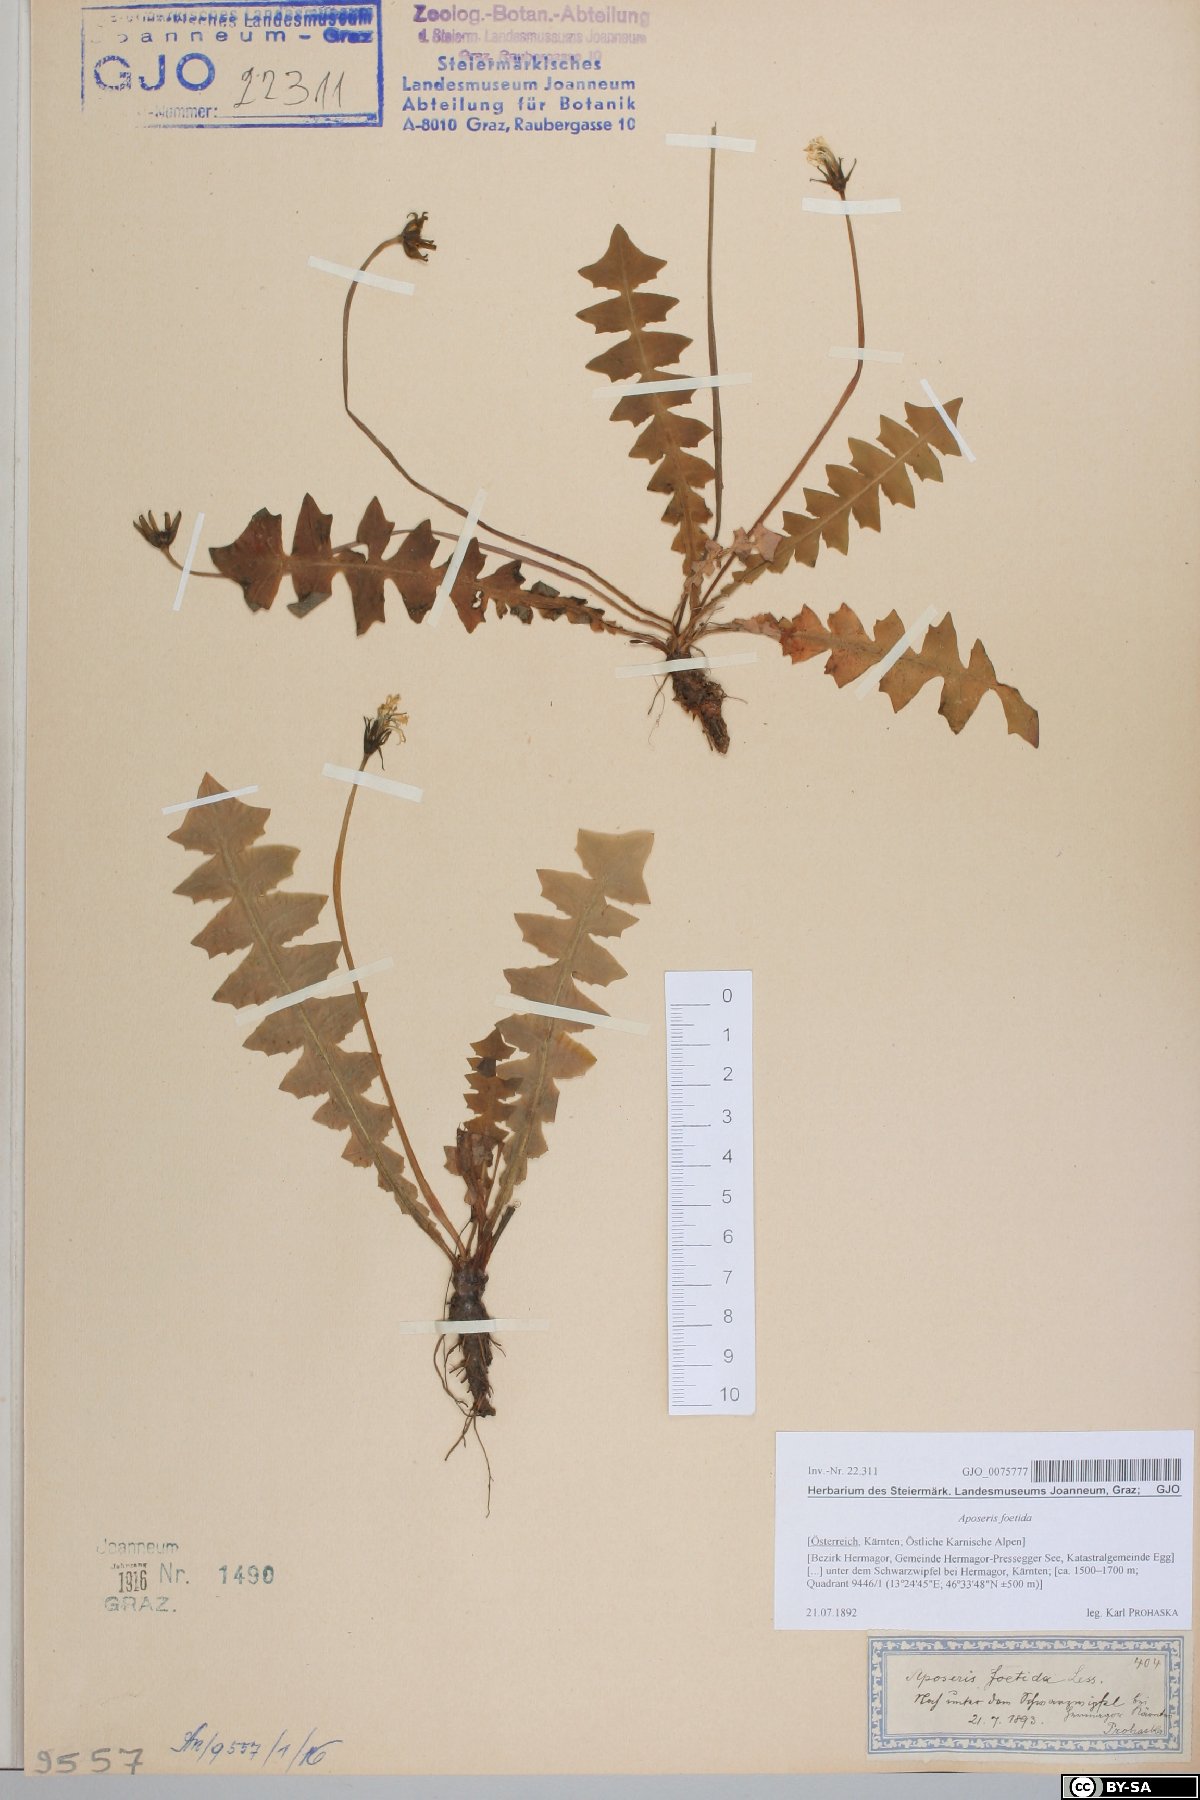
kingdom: Plantae
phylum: Tracheophyta
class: Magnoliopsida
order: Asterales
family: Asteraceae
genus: Aposeris
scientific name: Aposeris foetida
